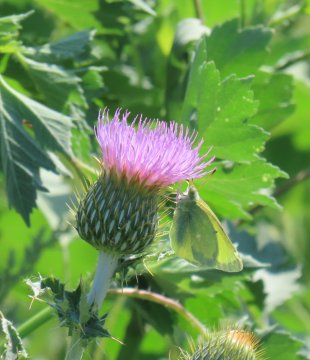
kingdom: Animalia
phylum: Arthropoda
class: Insecta
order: Lepidoptera
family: Pieridae
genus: Colias
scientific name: Colias alexandra
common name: Queen Alexandra's Sulphur
